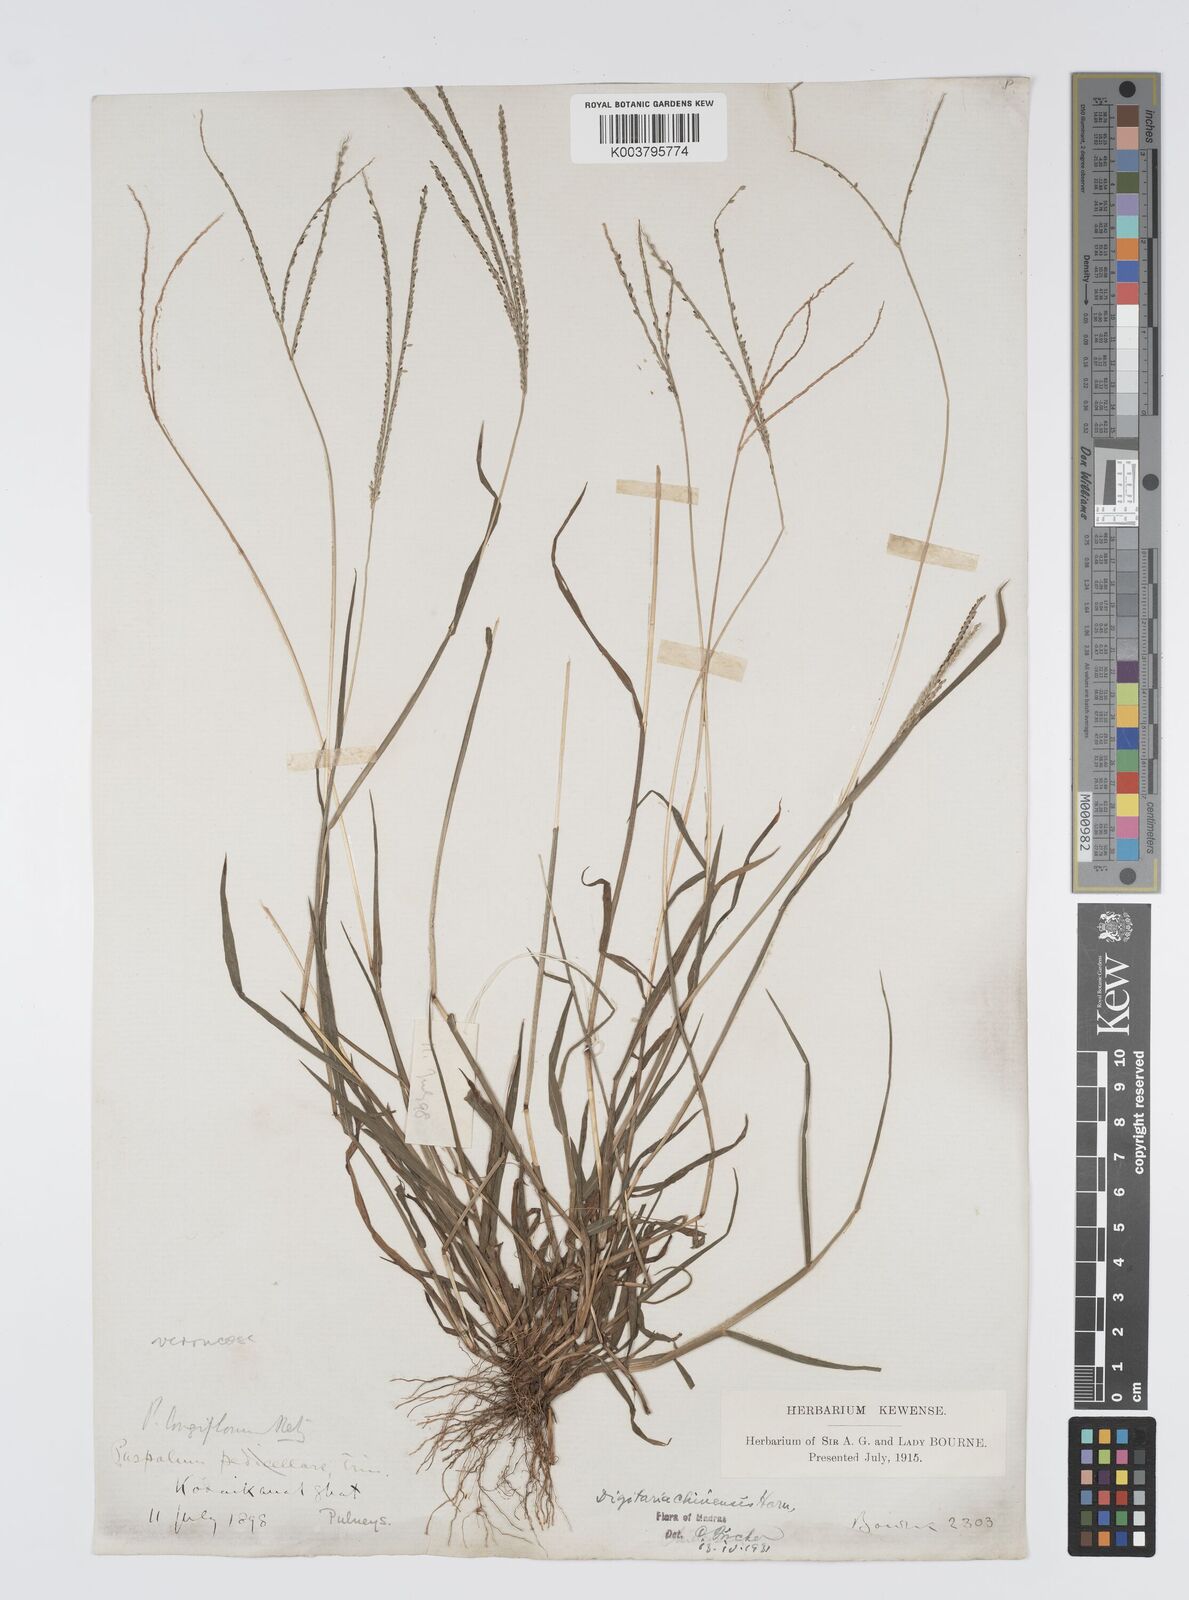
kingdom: Plantae
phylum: Tracheophyta
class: Liliopsida
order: Poales
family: Poaceae
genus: Digitaria
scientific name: Digitaria violascens
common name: Violet crabgrass
